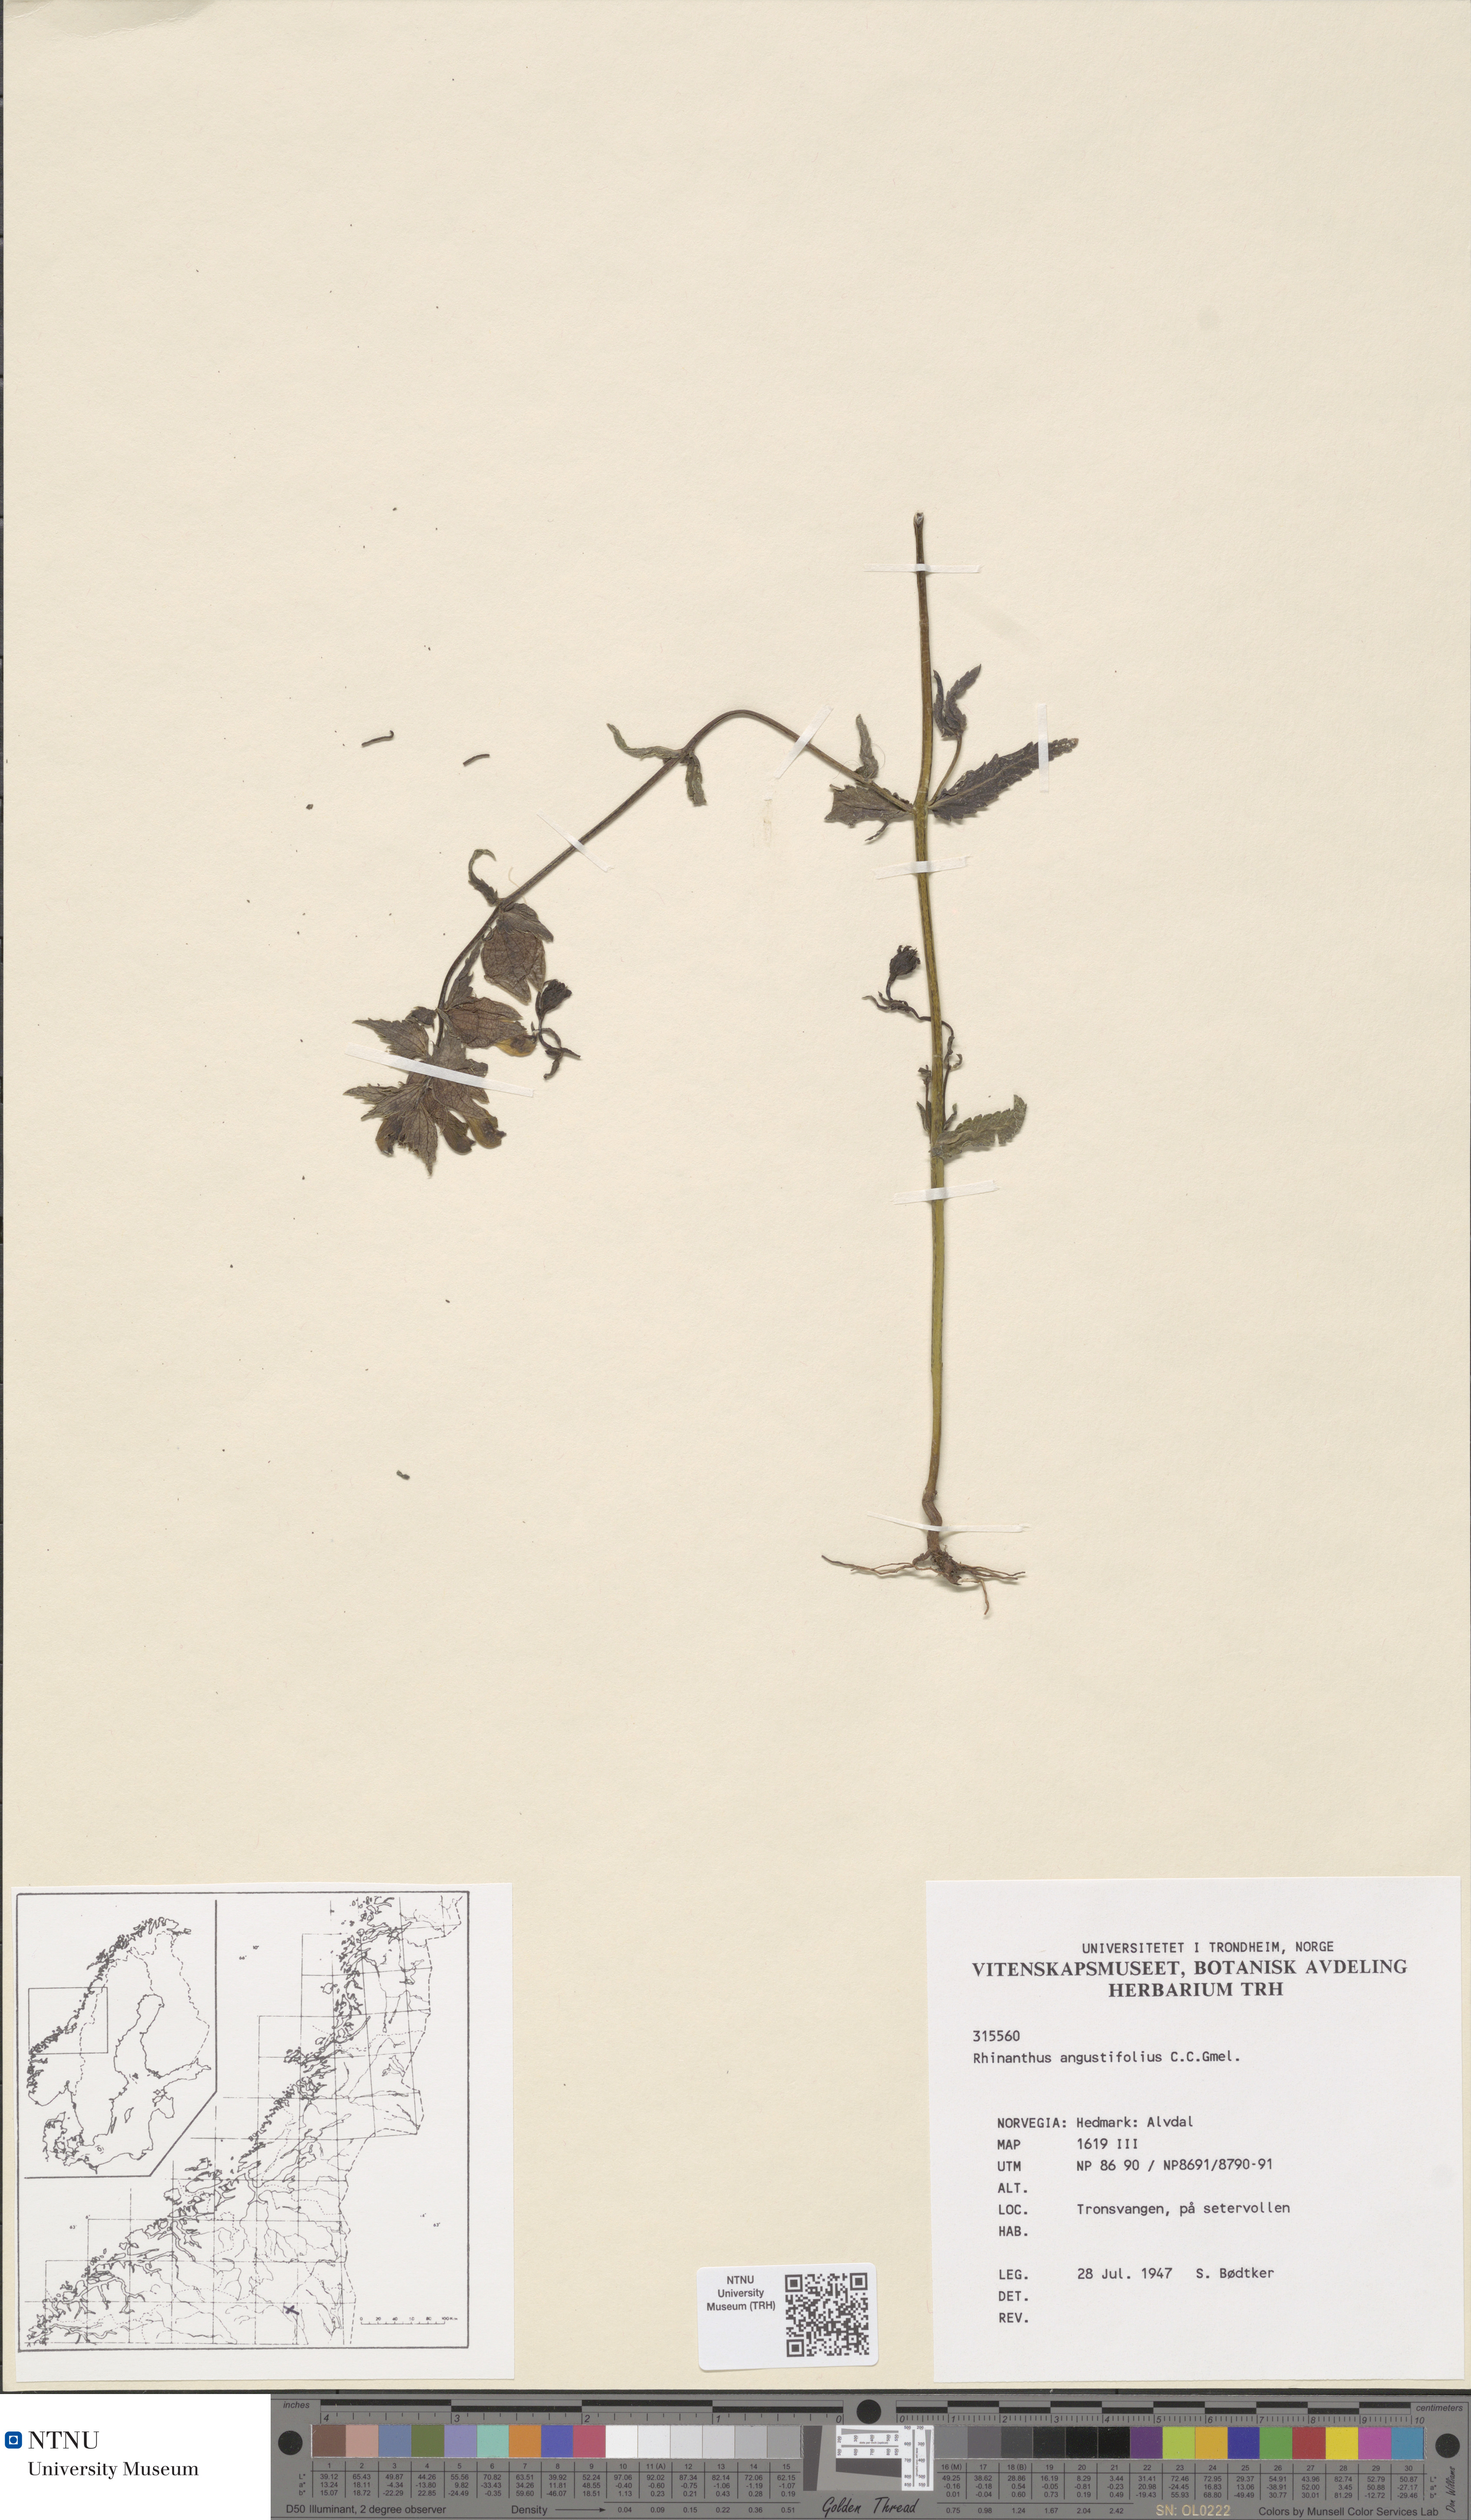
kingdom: Plantae
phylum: Tracheophyta
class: Magnoliopsida
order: Lamiales
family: Orobanchaceae
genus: Rhinanthus
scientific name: Rhinanthus serotinus
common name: Late-flowering yellow rattle
